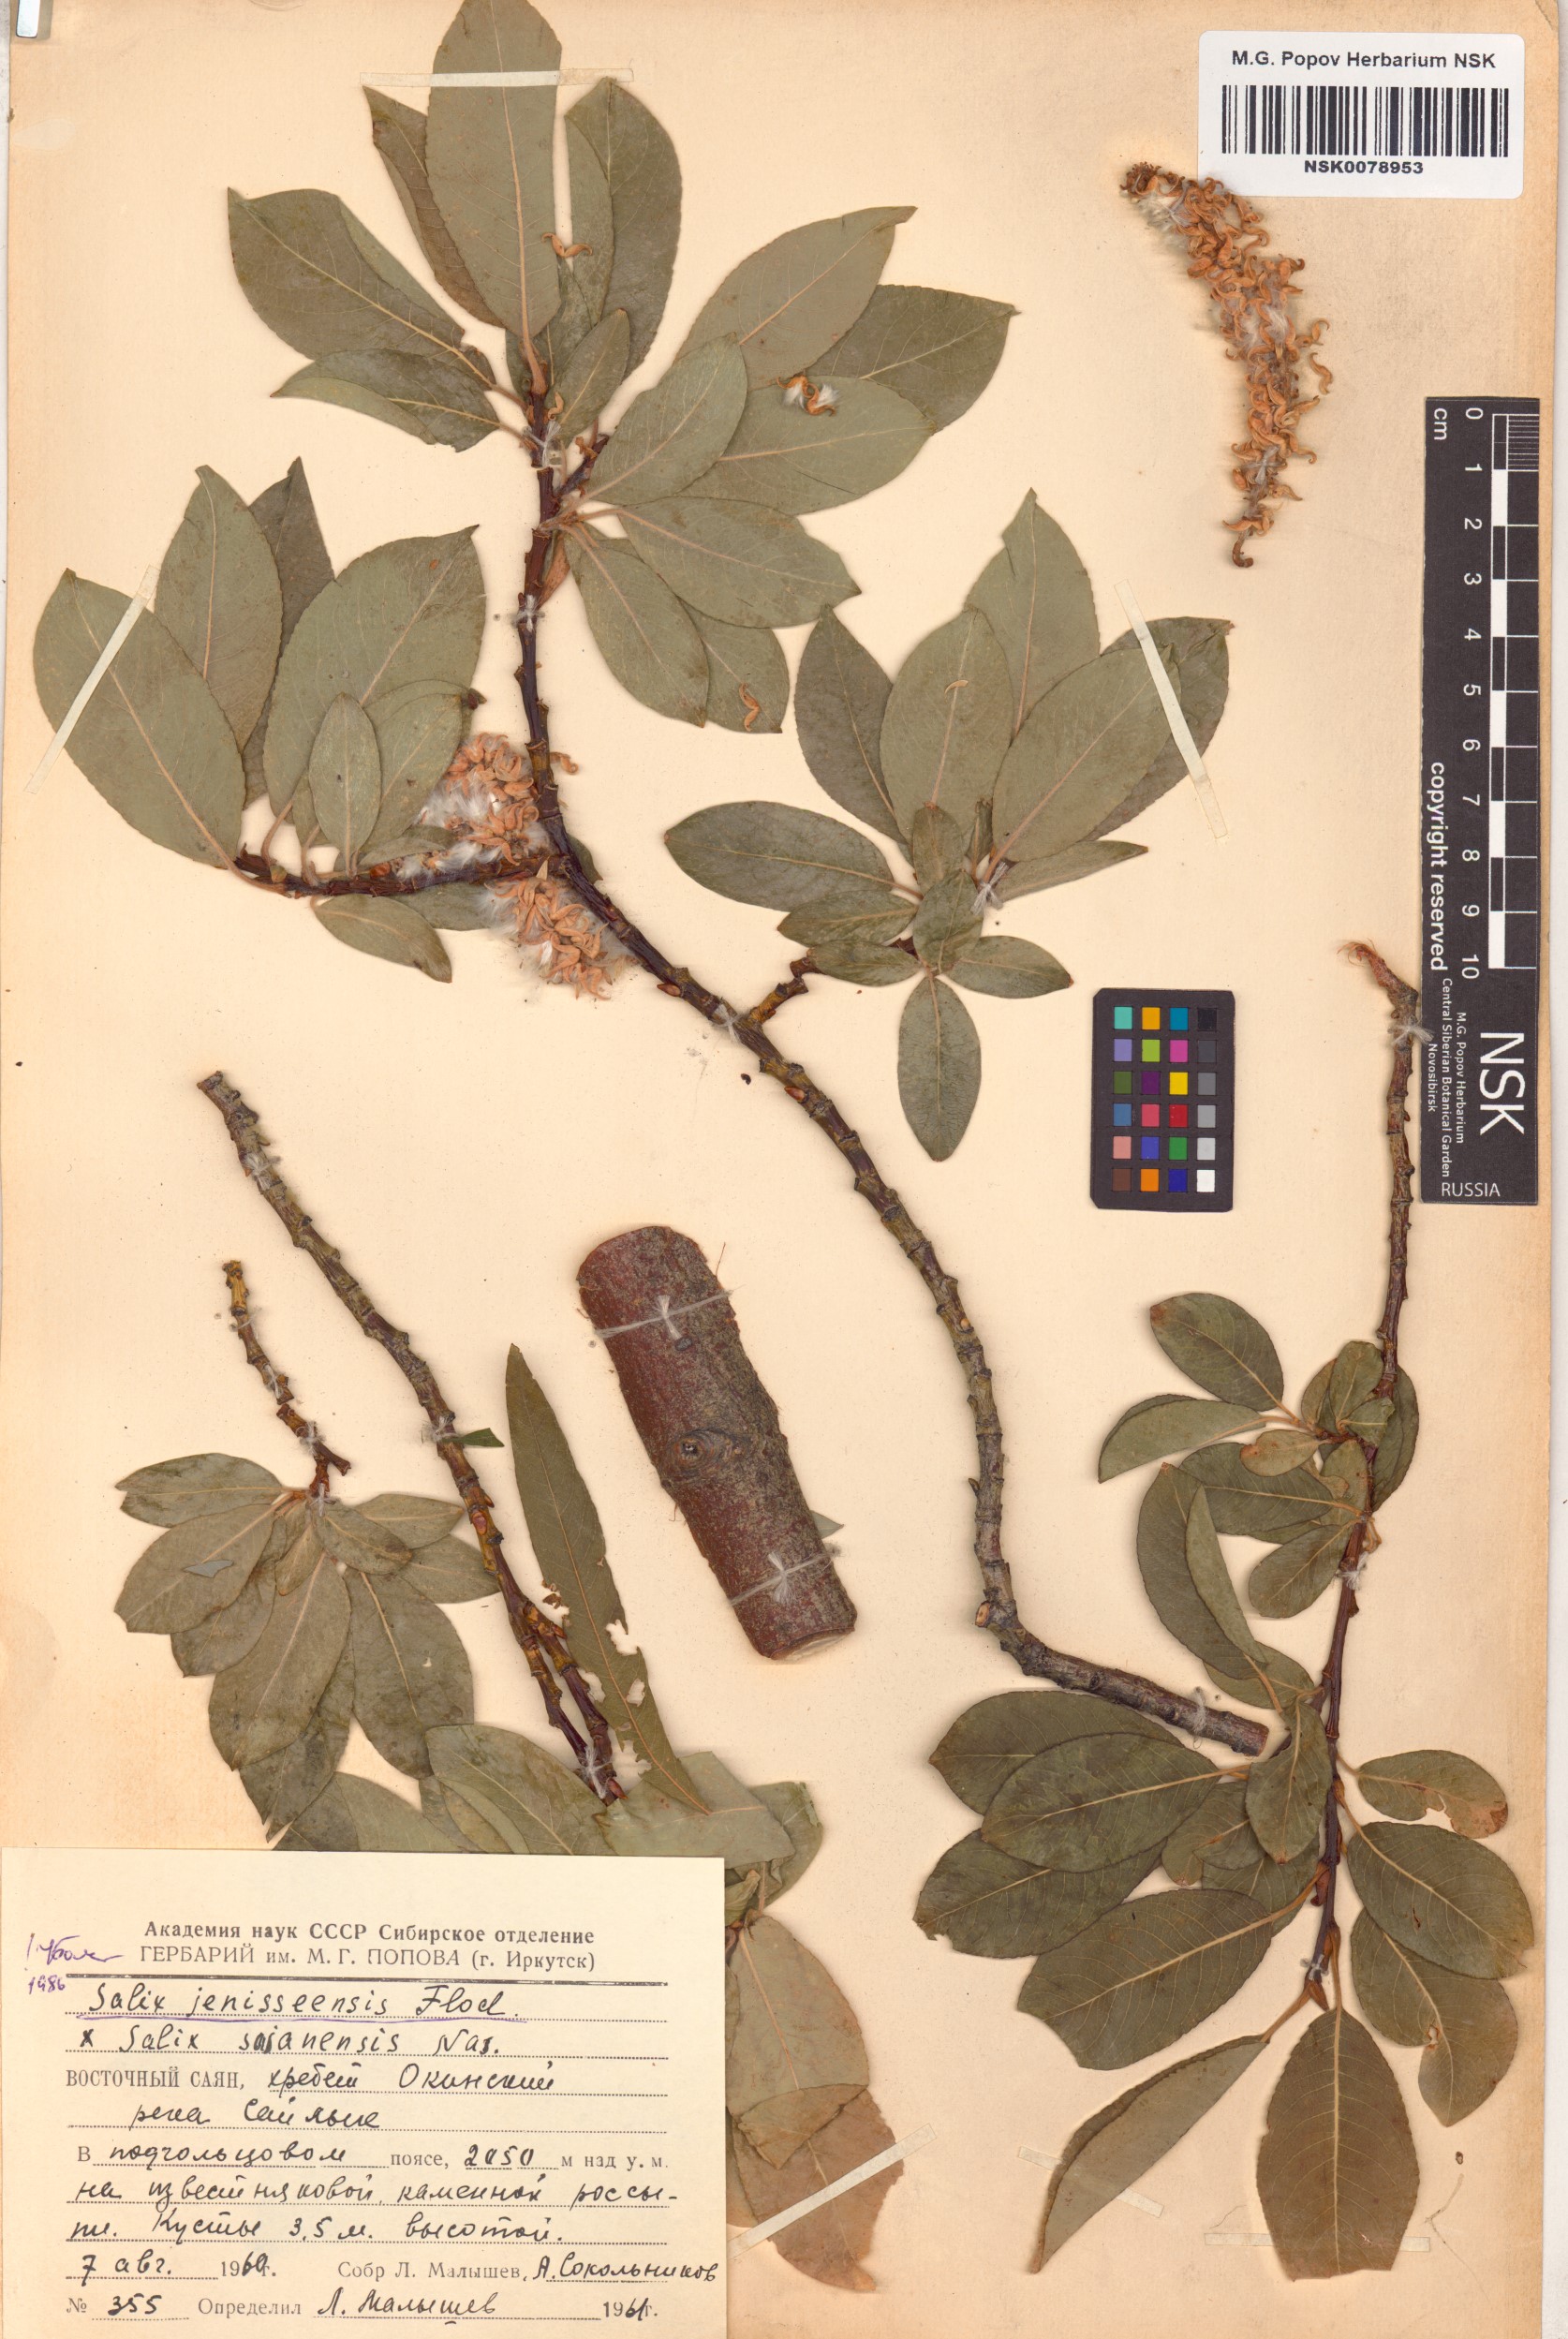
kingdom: Plantae
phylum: Tracheophyta
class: Magnoliopsida
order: Malpighiales
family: Salicaceae
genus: Salix
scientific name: Salix jenisseensis
